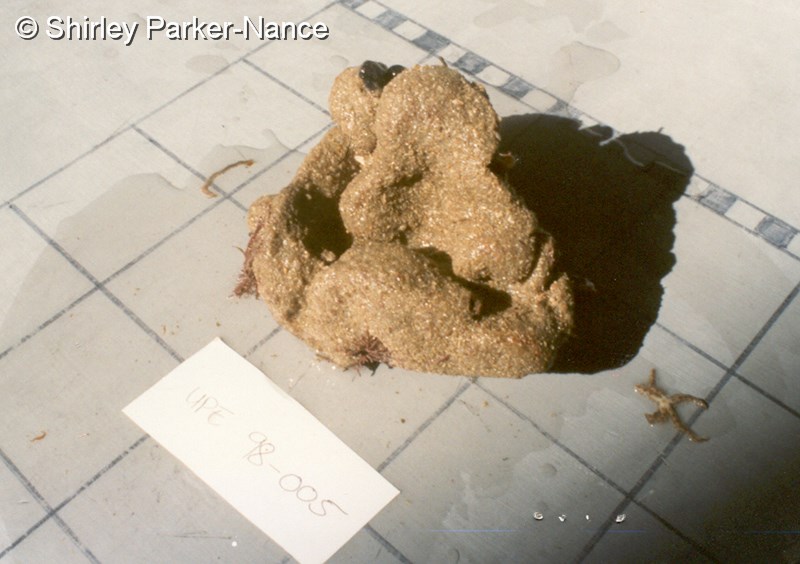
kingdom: Animalia
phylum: Chordata
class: Ascidiacea
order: Aplousobranchia
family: Polyclinidae
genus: Polyclinum
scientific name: Polyclinum isipingense
